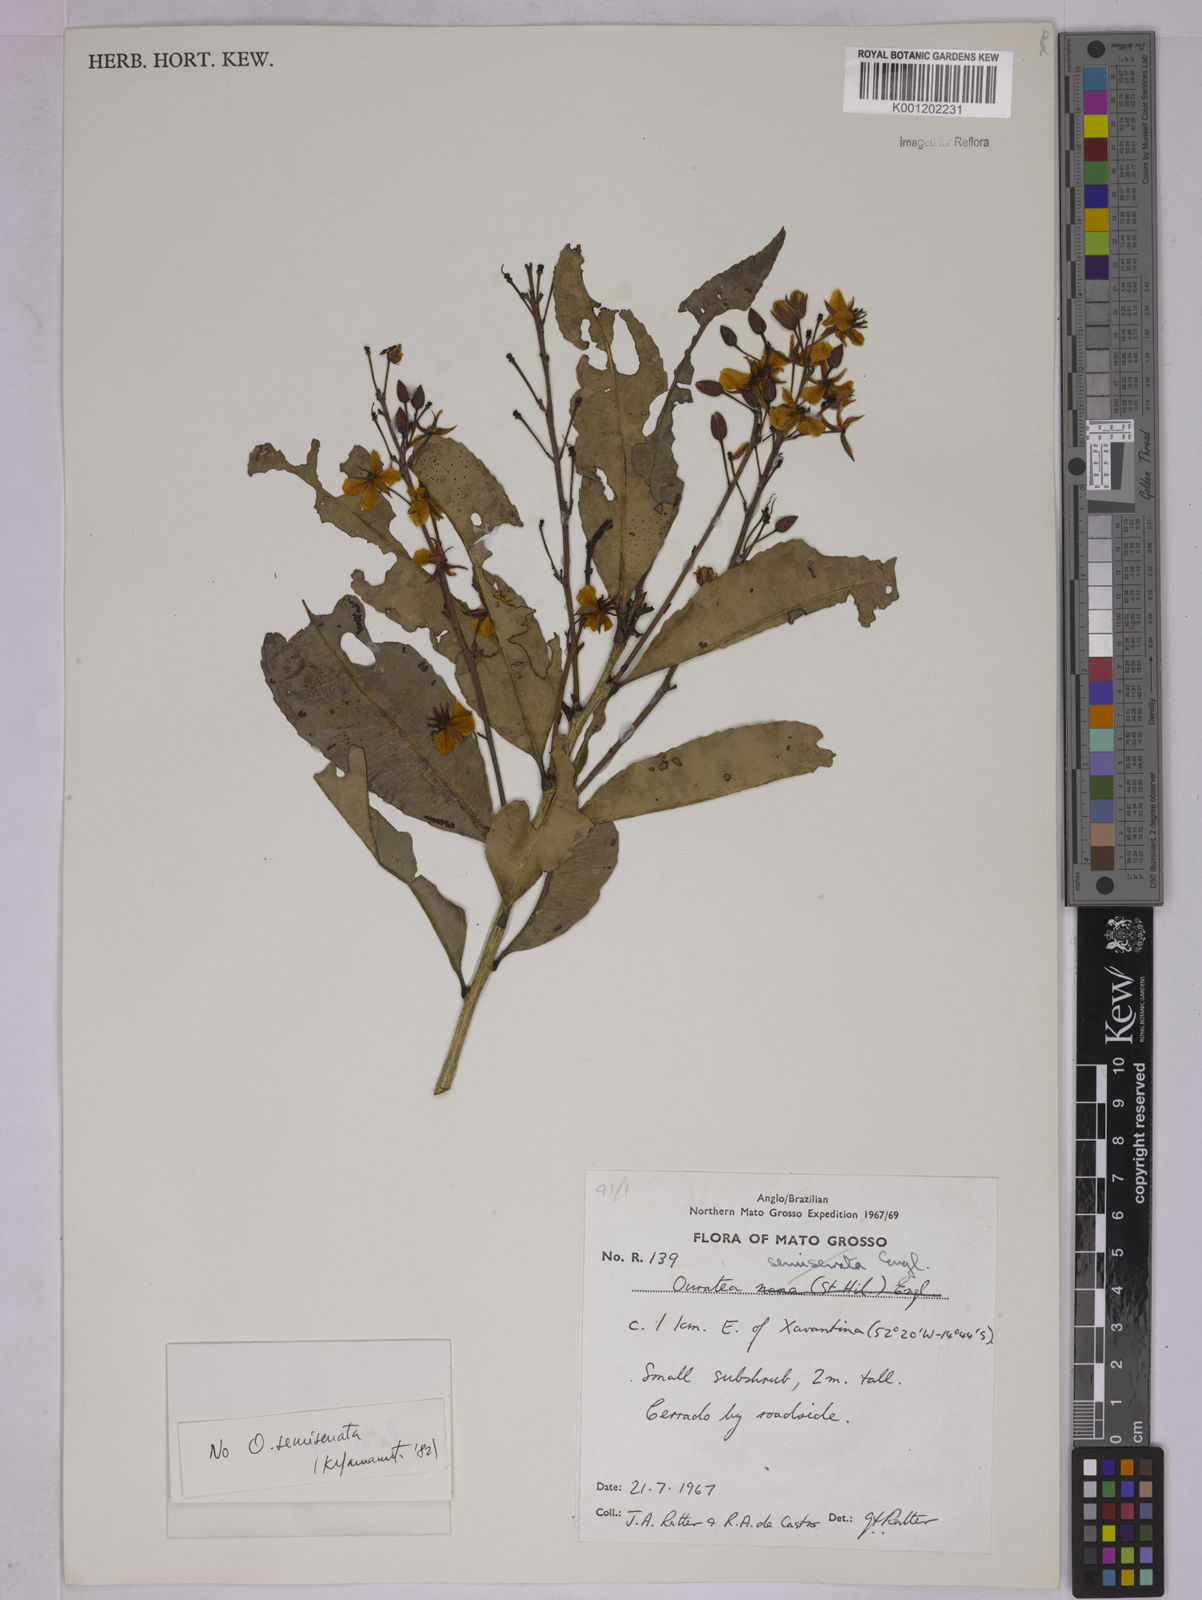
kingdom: Plantae
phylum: Tracheophyta
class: Magnoliopsida
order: Malpighiales
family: Ochnaceae
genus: Ouratea
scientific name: Ouratea
